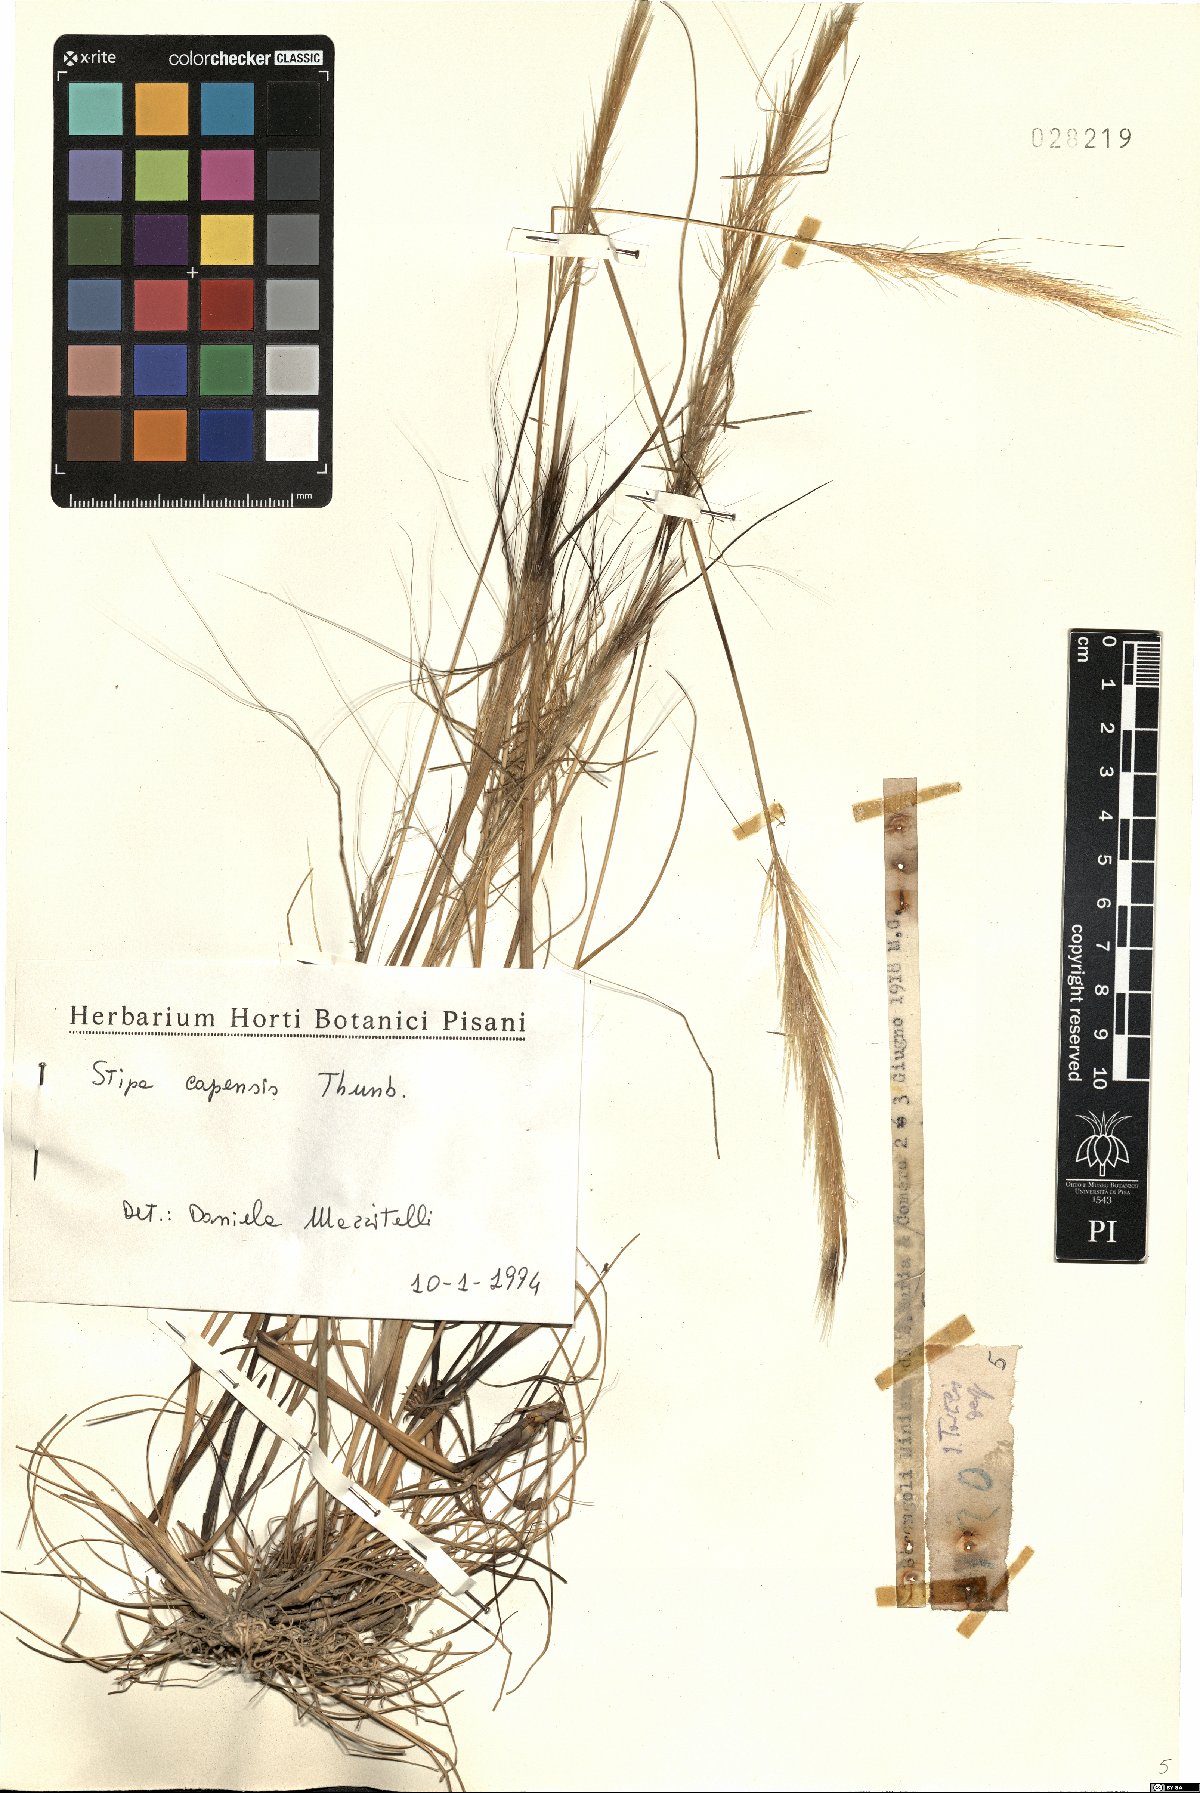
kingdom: Plantae
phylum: Tracheophyta
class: Liliopsida
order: Poales
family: Poaceae
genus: Stipellula
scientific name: Stipellula capensis
